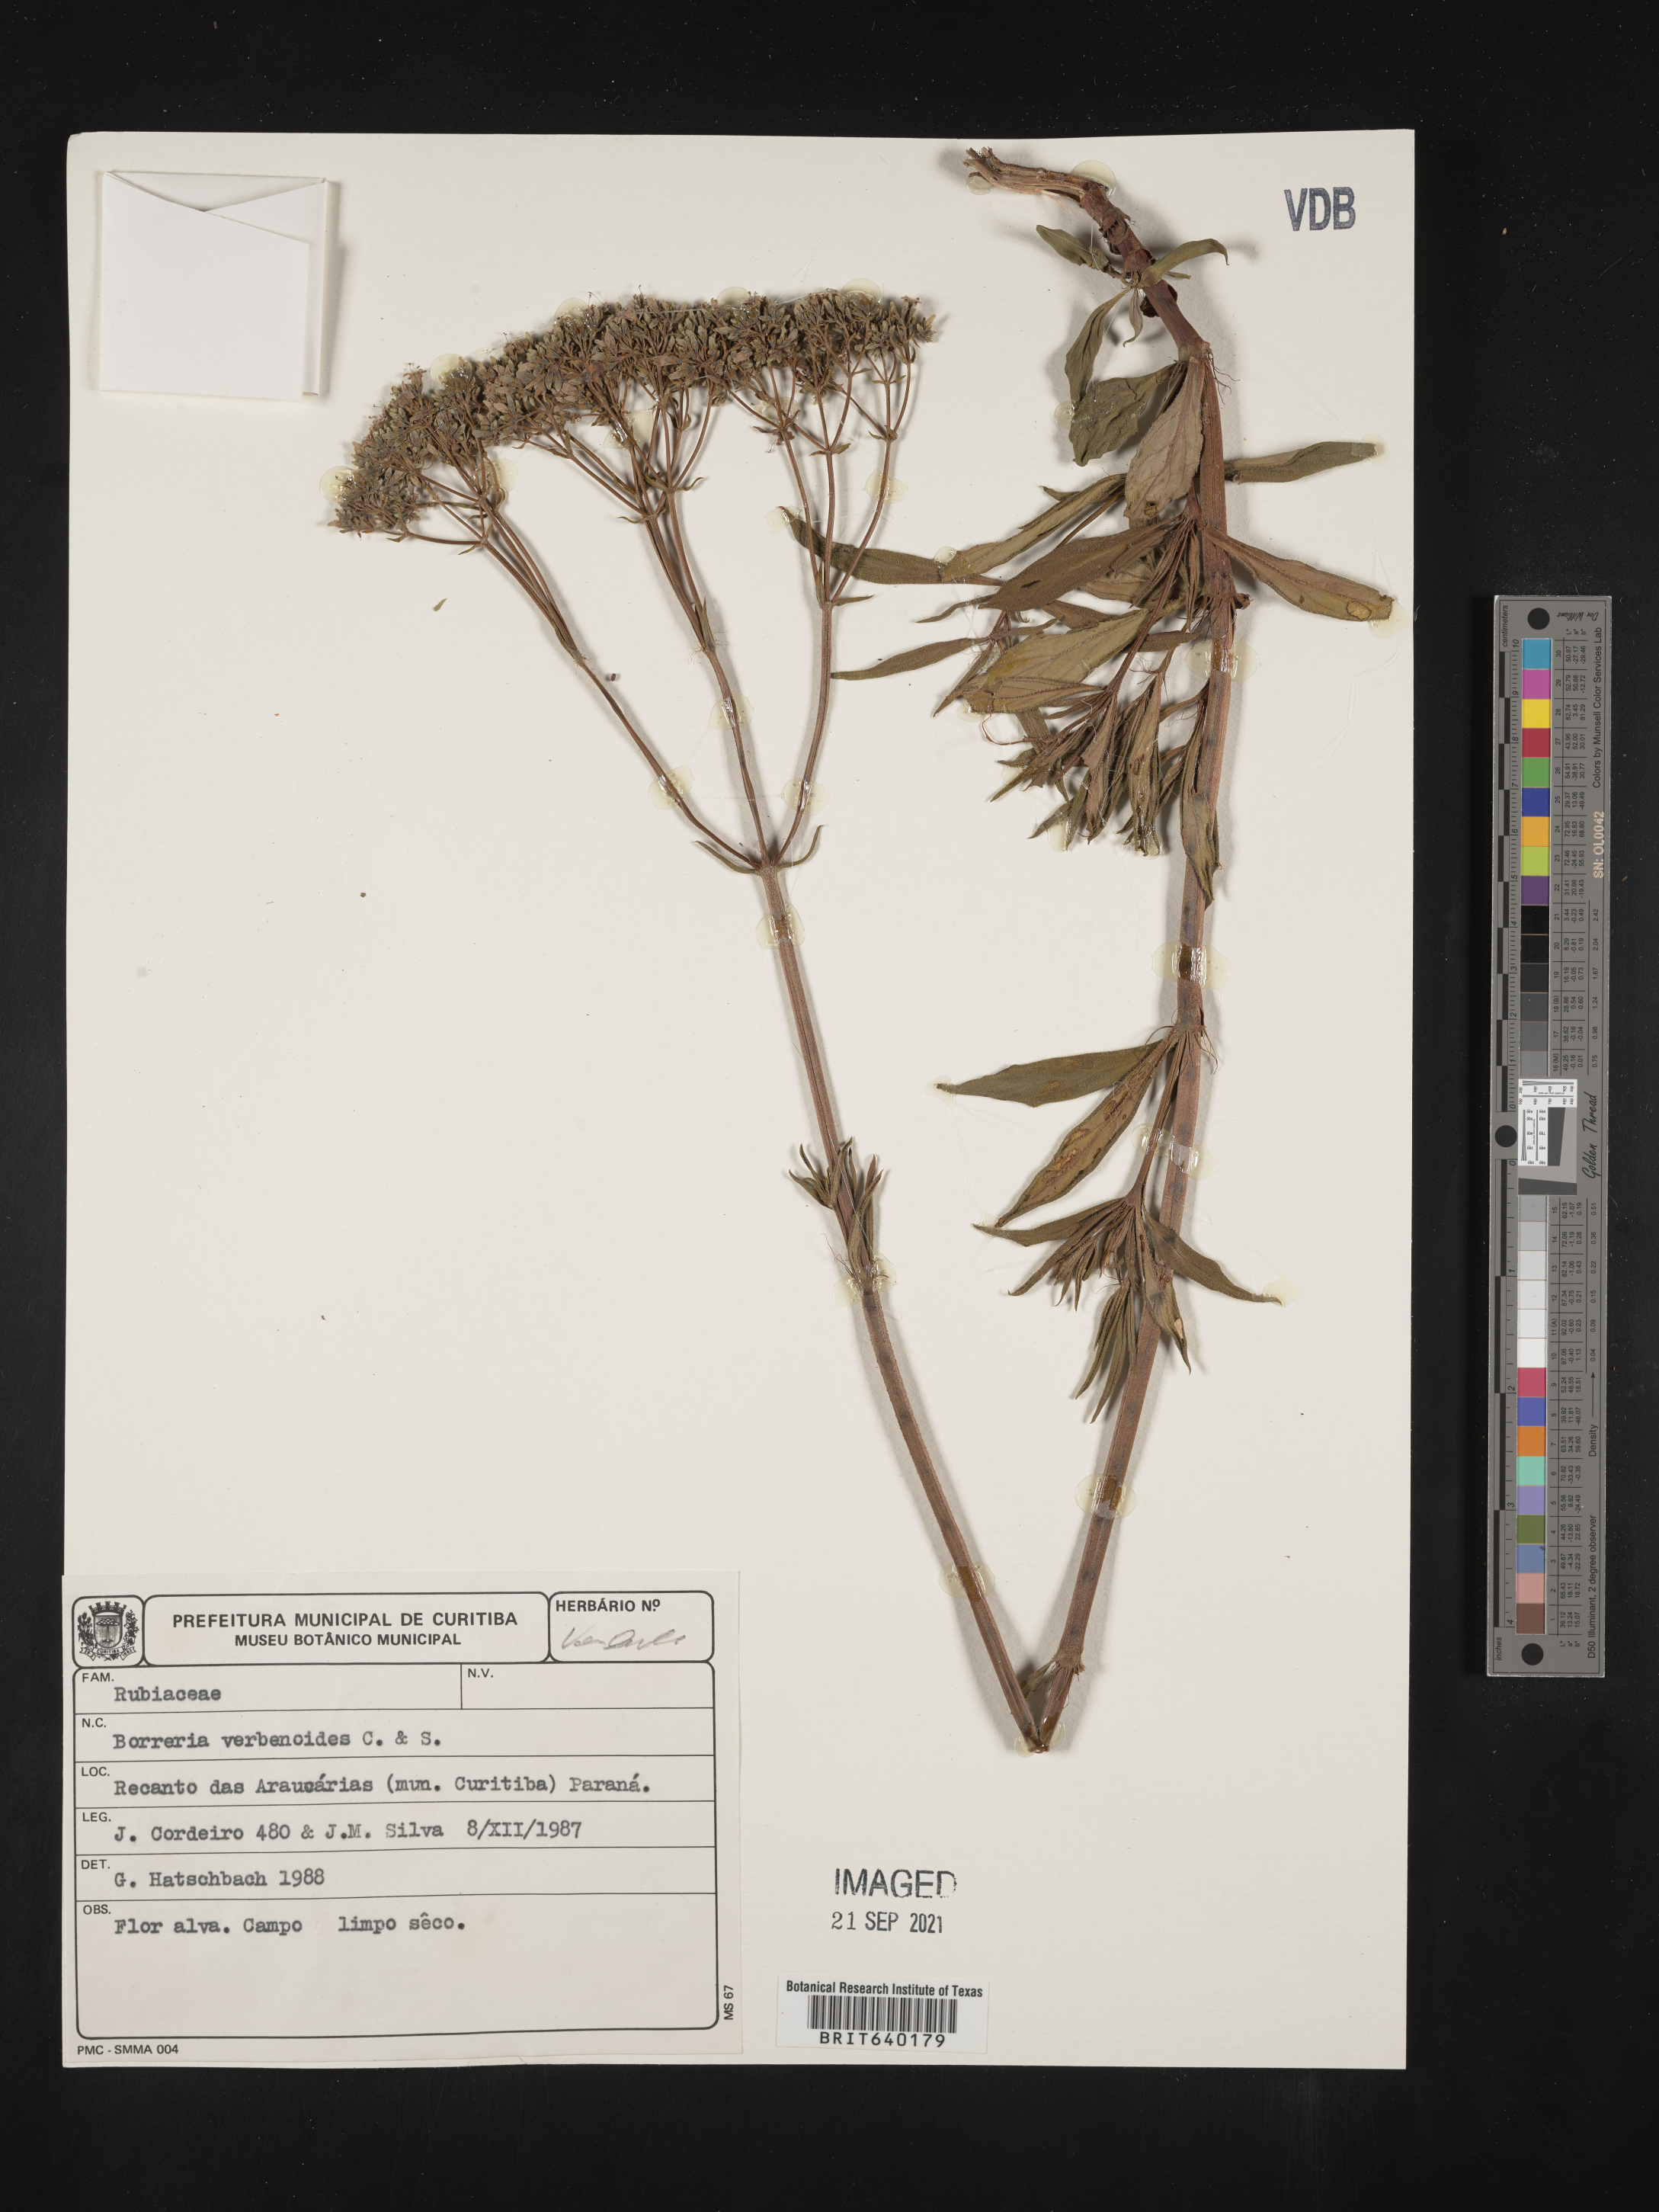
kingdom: Plantae
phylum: Tracheophyta
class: Magnoliopsida
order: Gentianales
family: Rubiaceae
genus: Spermacoce
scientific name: Spermacoce
